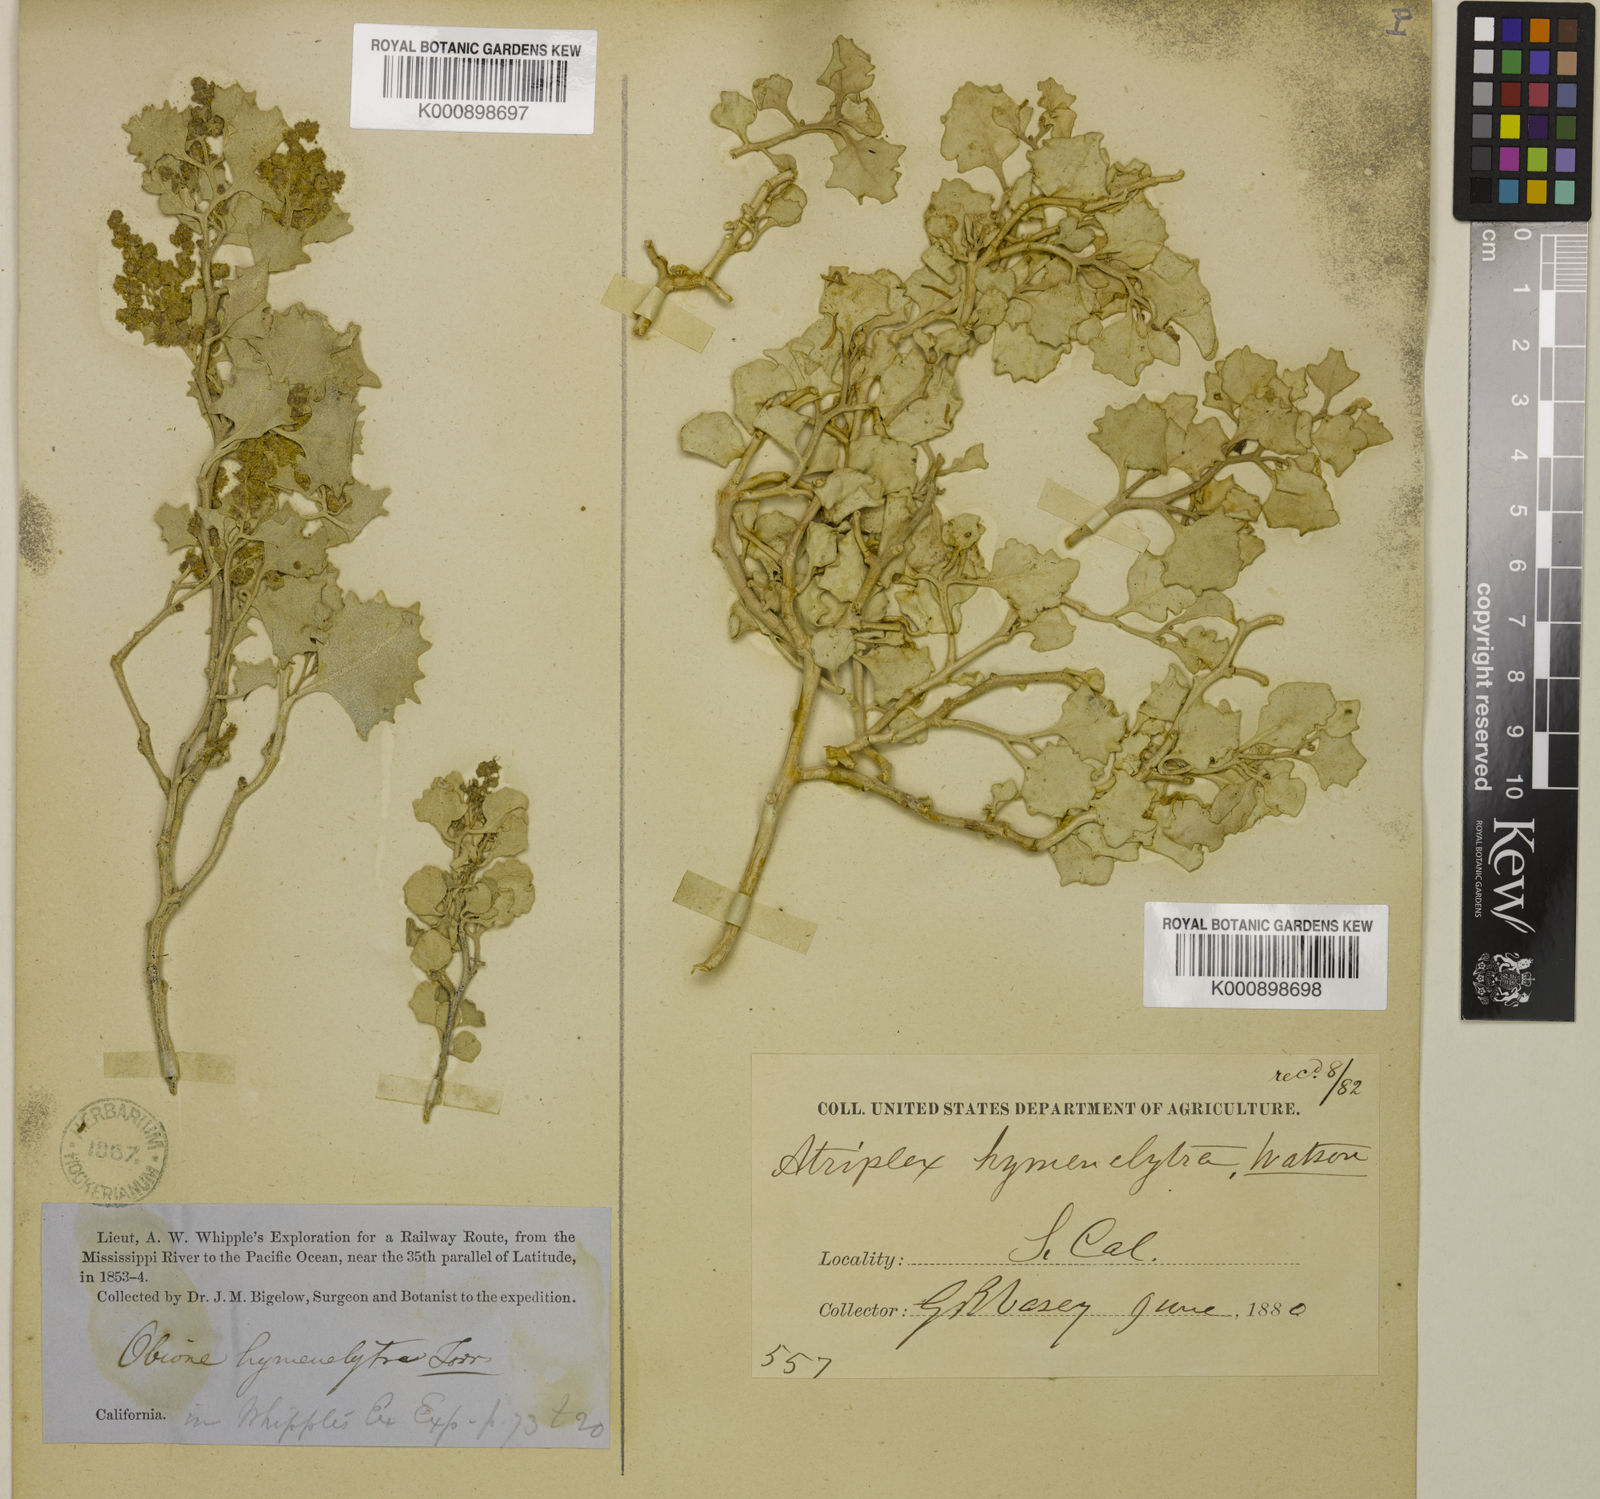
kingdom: Plantae
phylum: Tracheophyta
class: Magnoliopsida
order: Caryophyllales
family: Amaranthaceae
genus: Atriplex
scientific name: Atriplex hymenelytra
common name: Desert-holly
